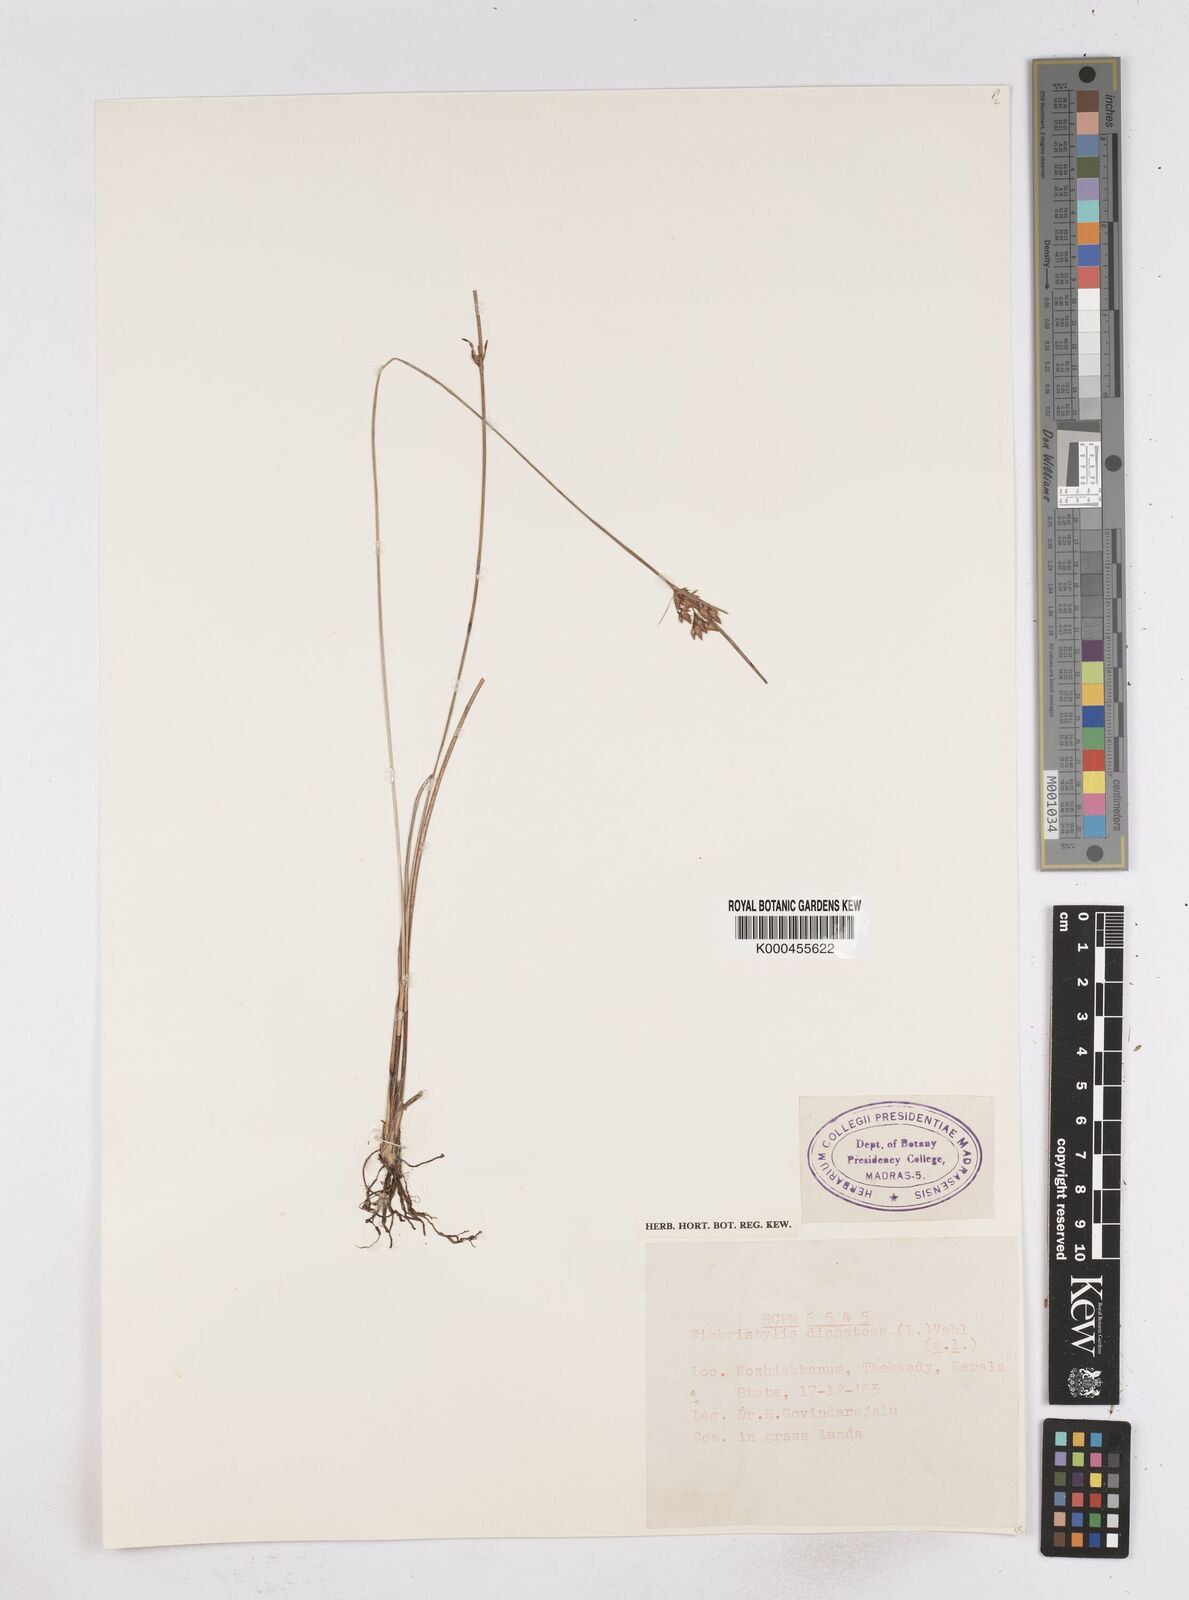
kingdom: Plantae
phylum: Tracheophyta
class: Liliopsida
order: Poales
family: Cyperaceae
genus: Fimbristylis
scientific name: Fimbristylis dichotoma
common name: Forked fimbry
